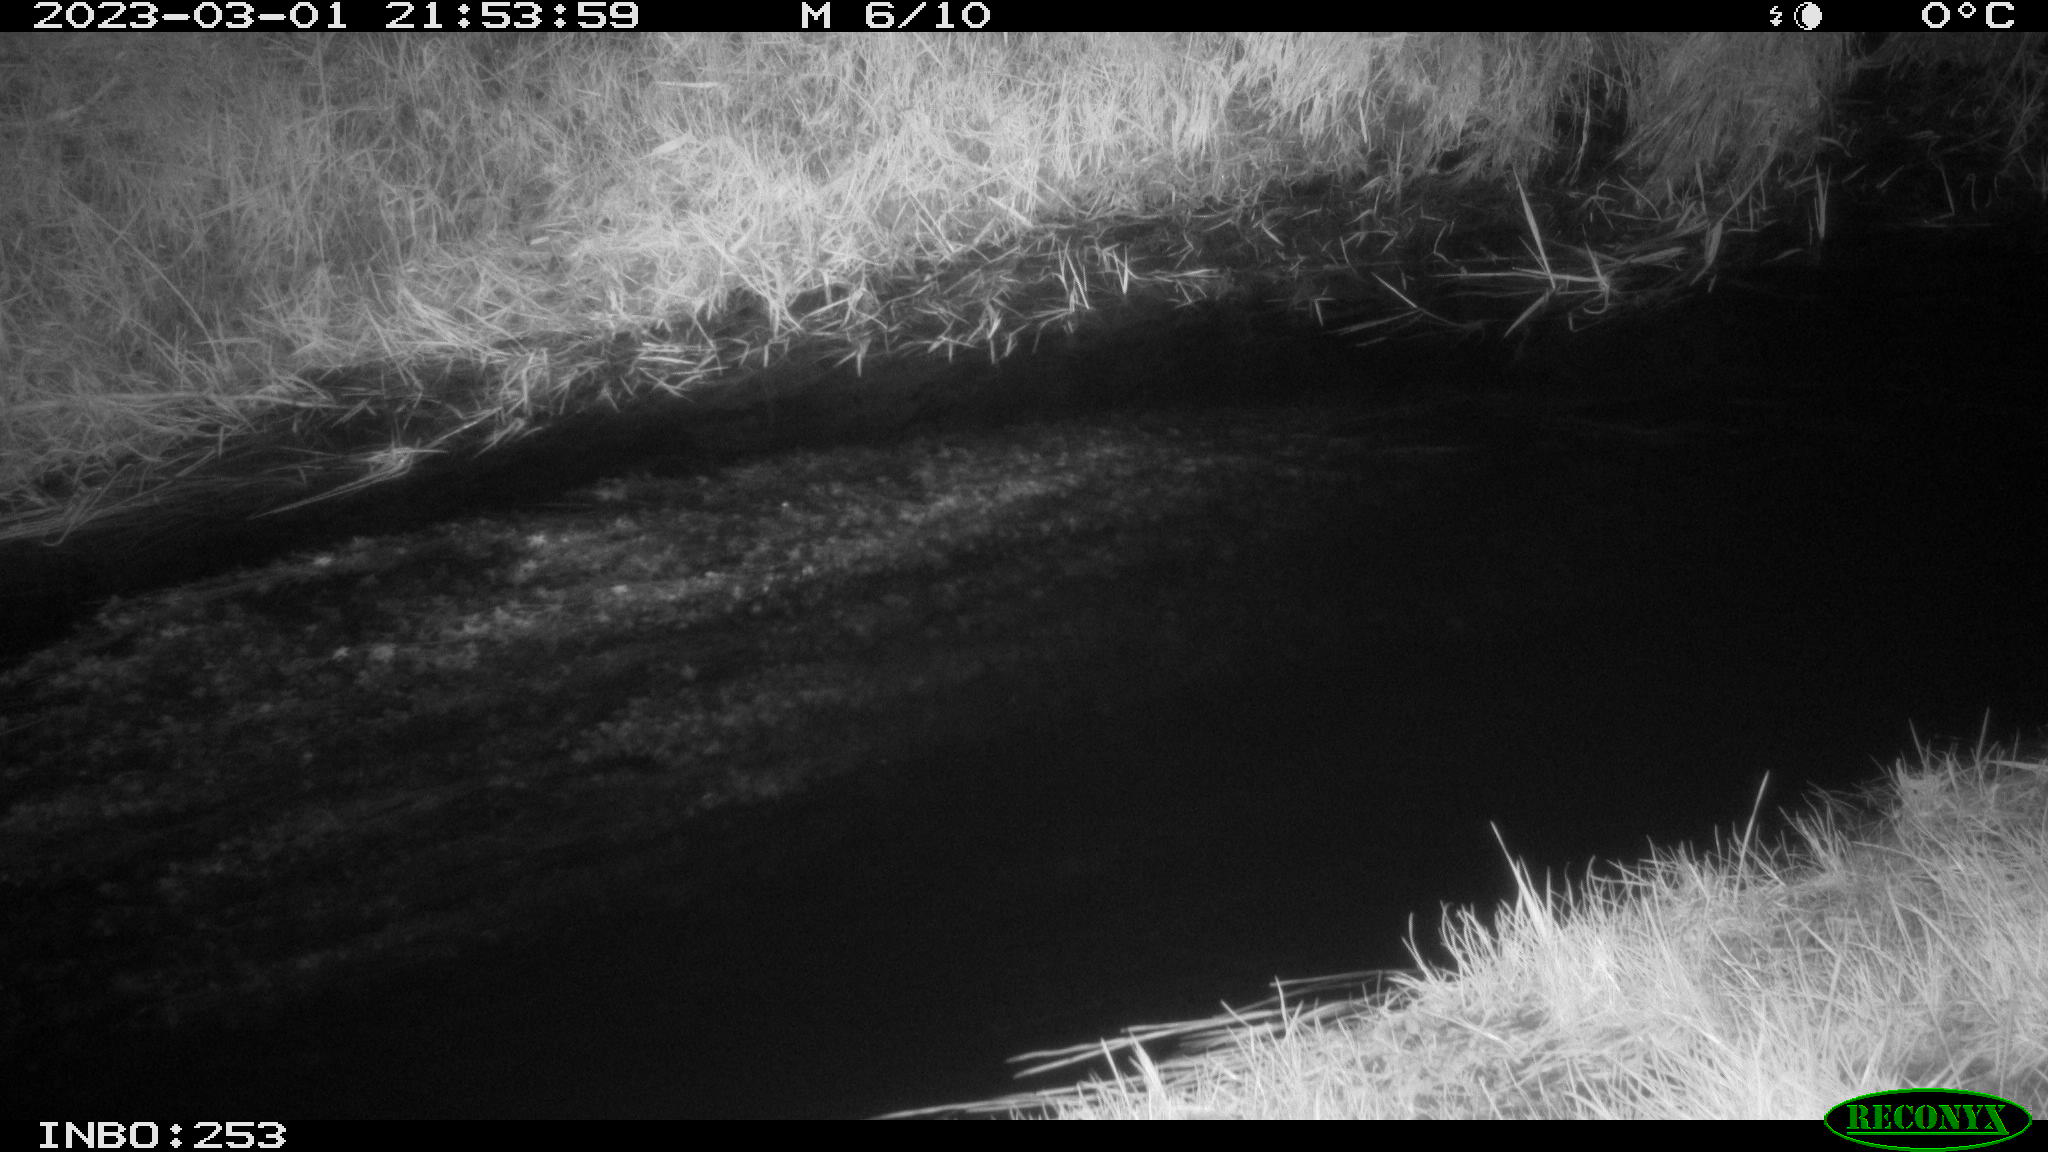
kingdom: Animalia
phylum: Chordata
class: Aves
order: Anseriformes
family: Anatidae
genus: Anas
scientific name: Anas
